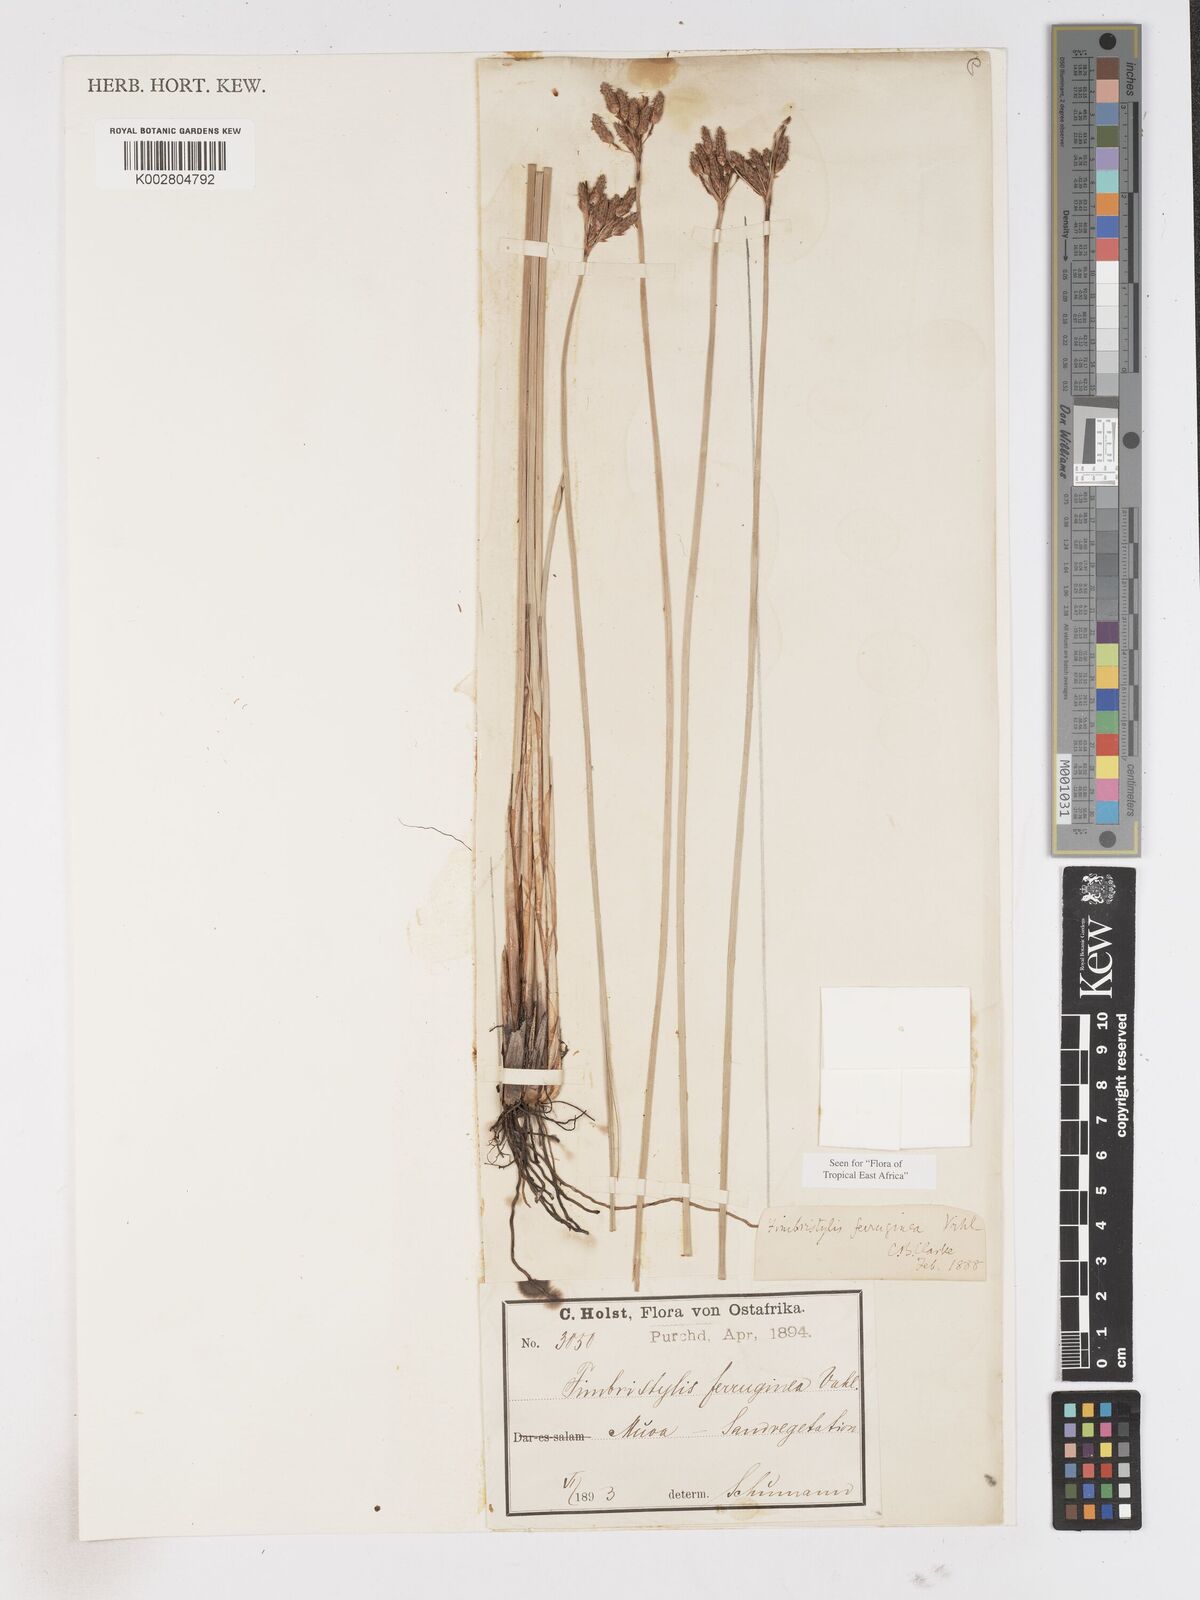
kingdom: Plantae
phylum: Tracheophyta
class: Liliopsida
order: Poales
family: Cyperaceae
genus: Fimbristylis
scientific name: Fimbristylis ferruginea
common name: West indian fimbry
